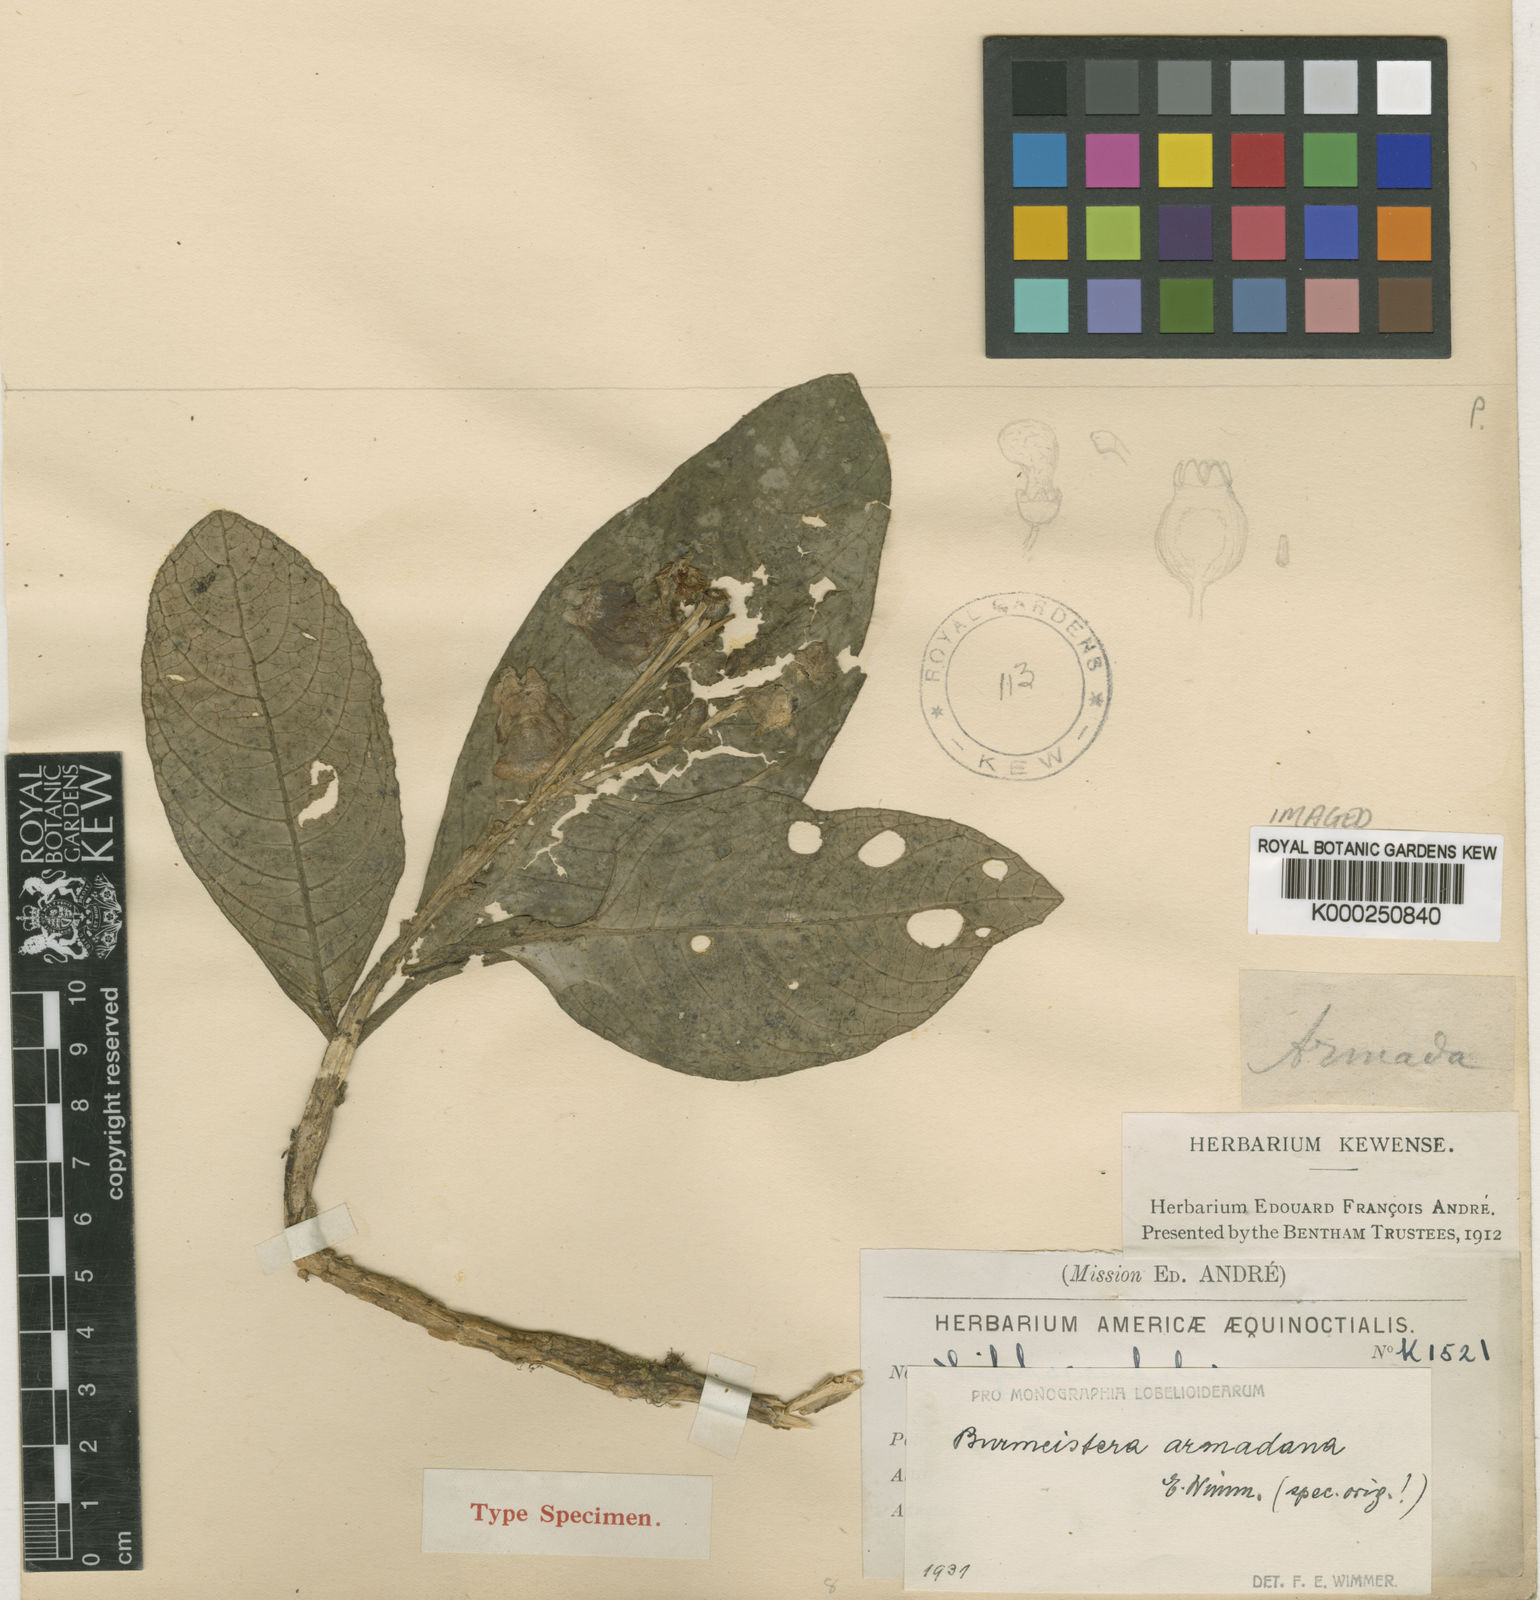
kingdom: Plantae
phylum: Tracheophyta
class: Magnoliopsida
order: Asterales
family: Campanulaceae
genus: Burmeistera
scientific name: Burmeistera multiflora
